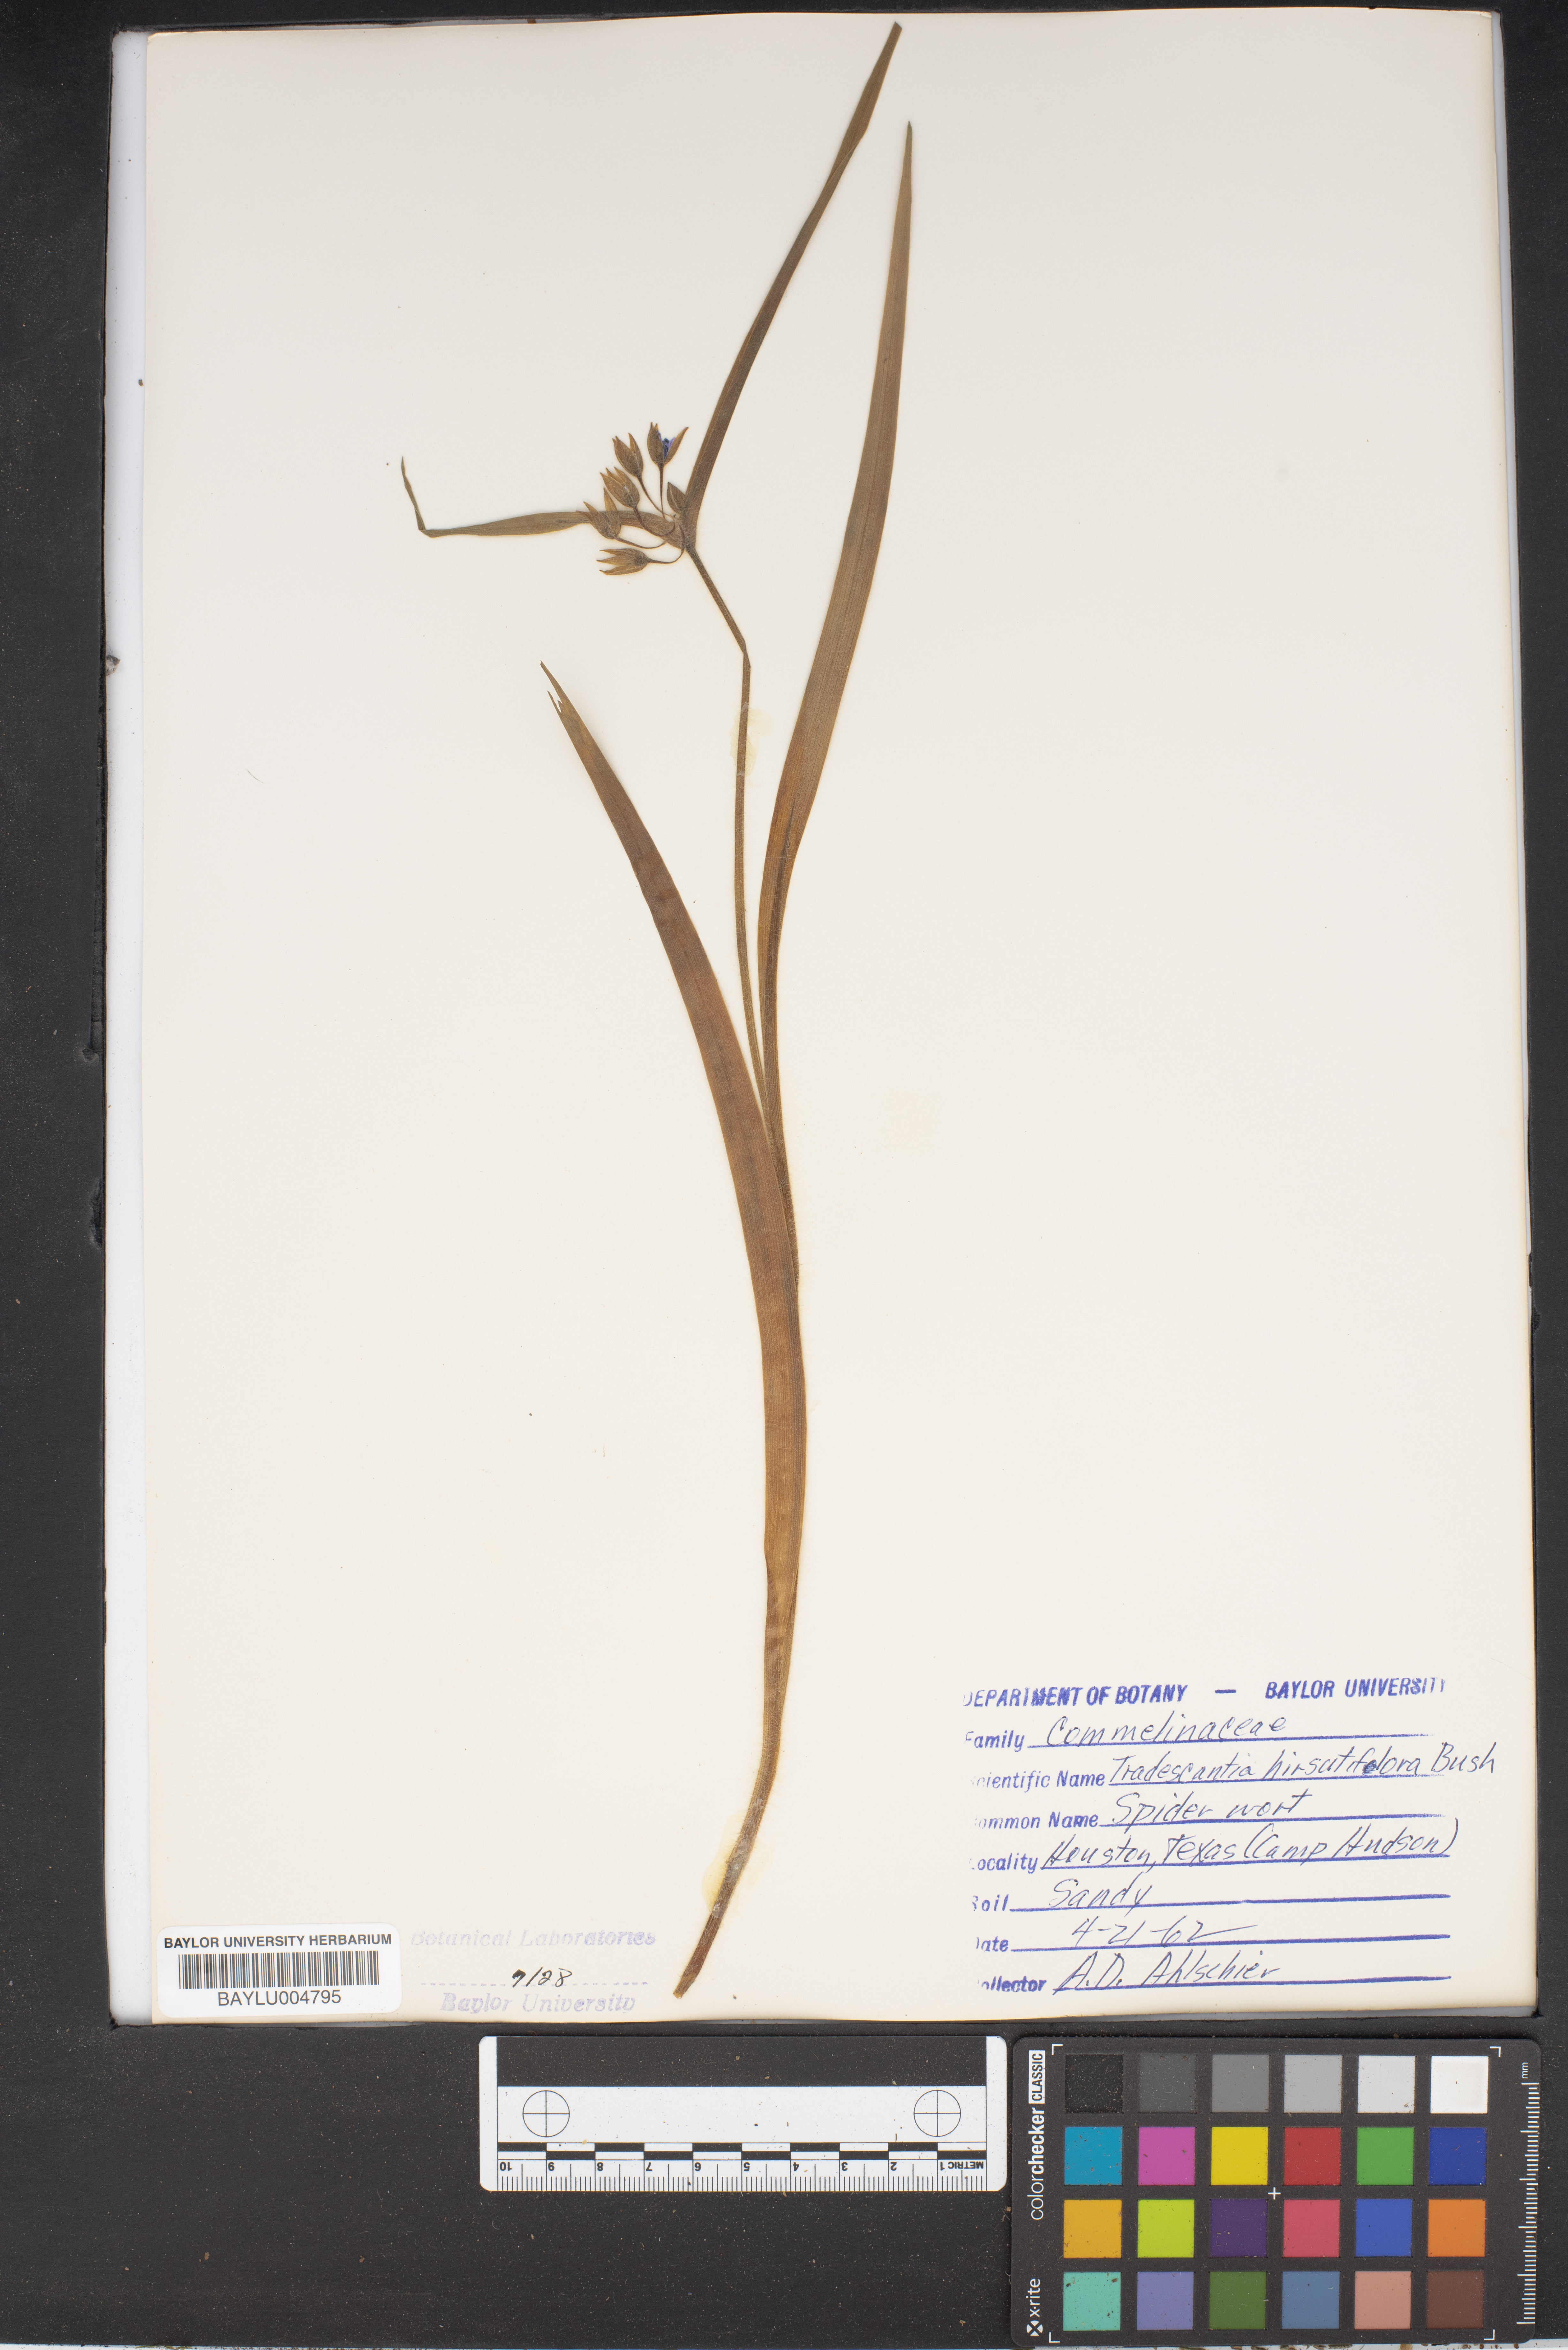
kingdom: Plantae
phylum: Tracheophyta
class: Liliopsida
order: Commelinales
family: Commelinaceae
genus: Tradescantia
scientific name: Tradescantia hirsutiflora
